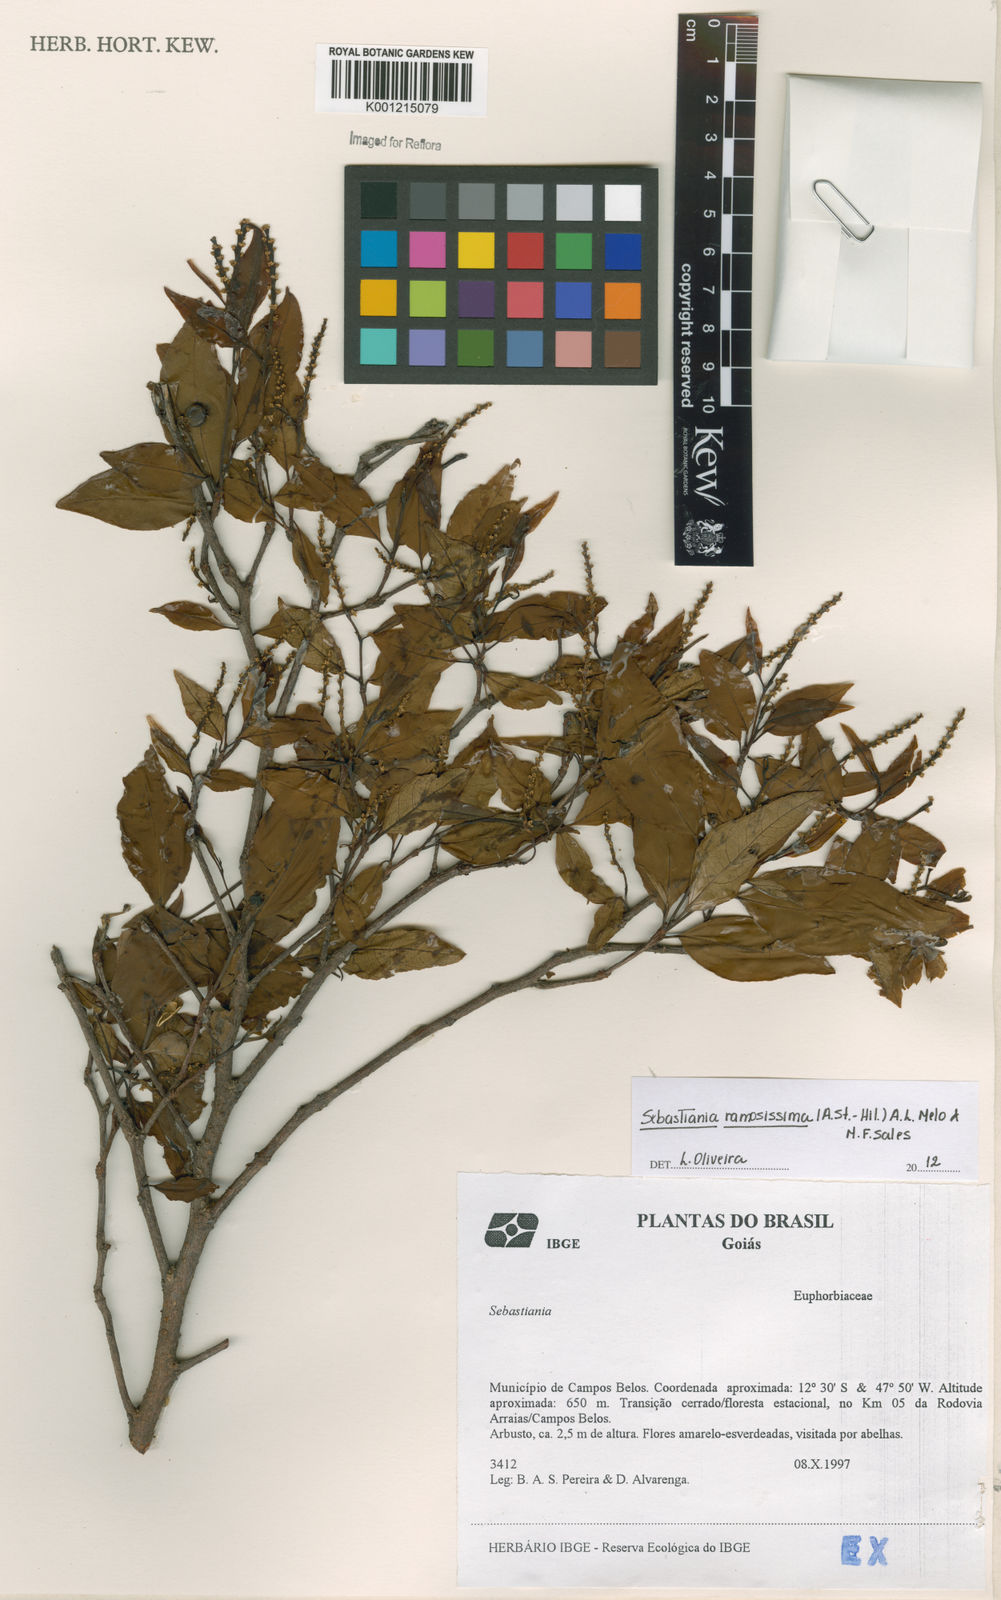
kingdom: Plantae
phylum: Tracheophyta
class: Magnoliopsida
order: Malpighiales
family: Euphorbiaceae
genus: Sebastiania
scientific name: Sebastiania
